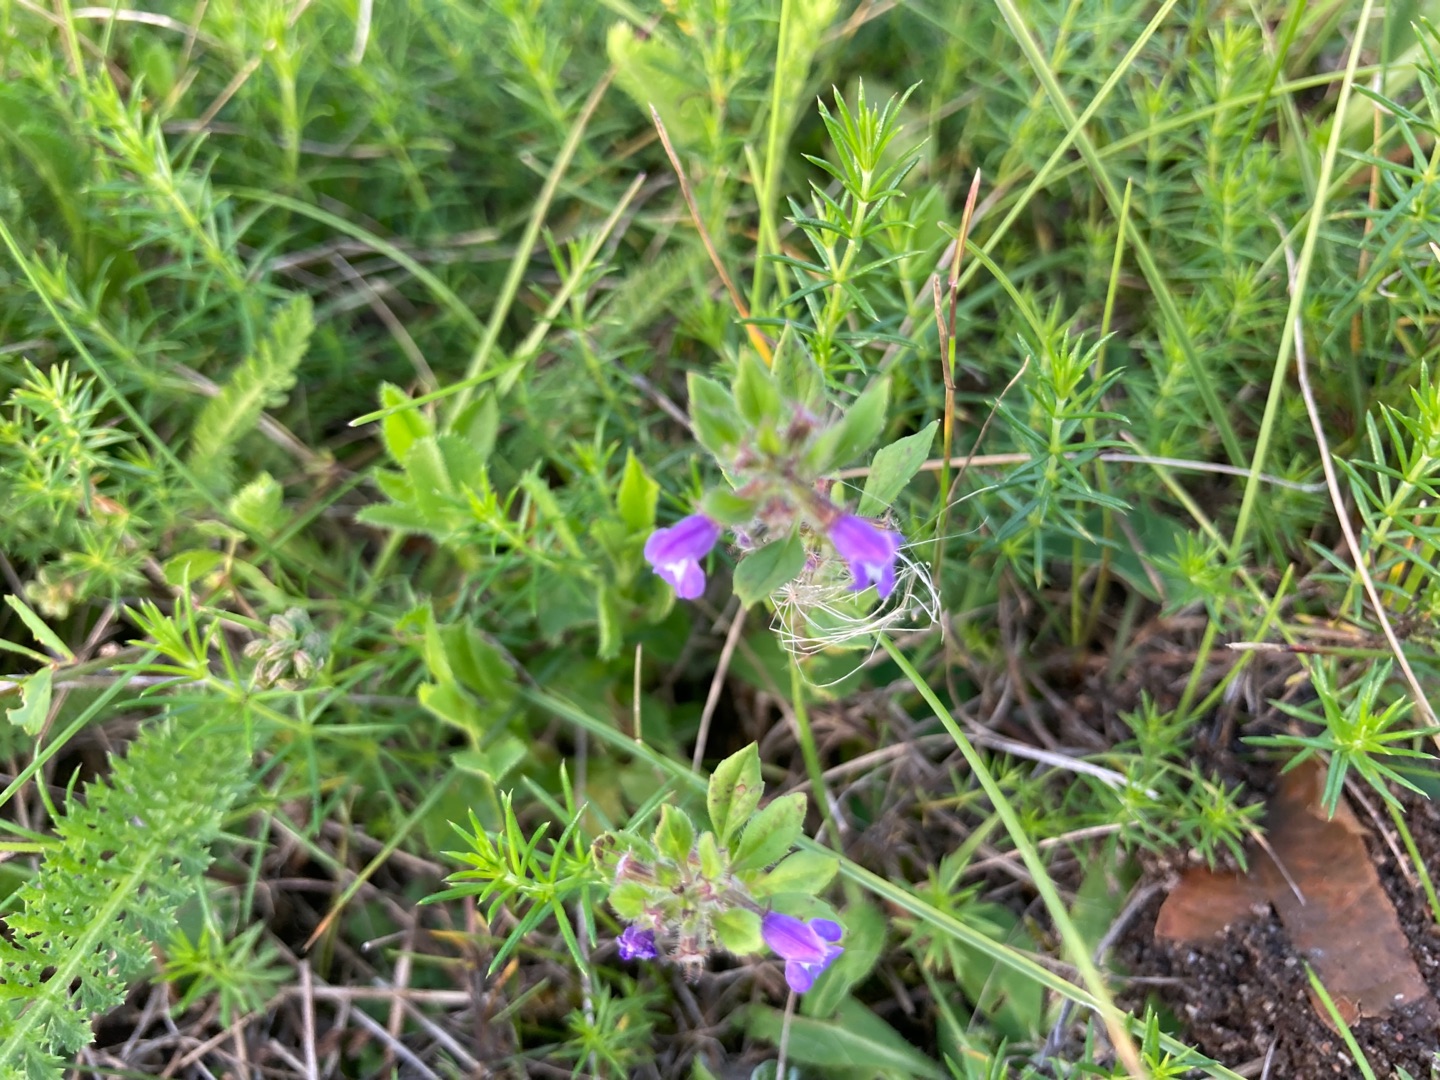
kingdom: Plantae
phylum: Tracheophyta
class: Magnoliopsida
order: Lamiales
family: Lamiaceae
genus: Clinopodium
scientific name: Clinopodium acinos
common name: Voldtimian
